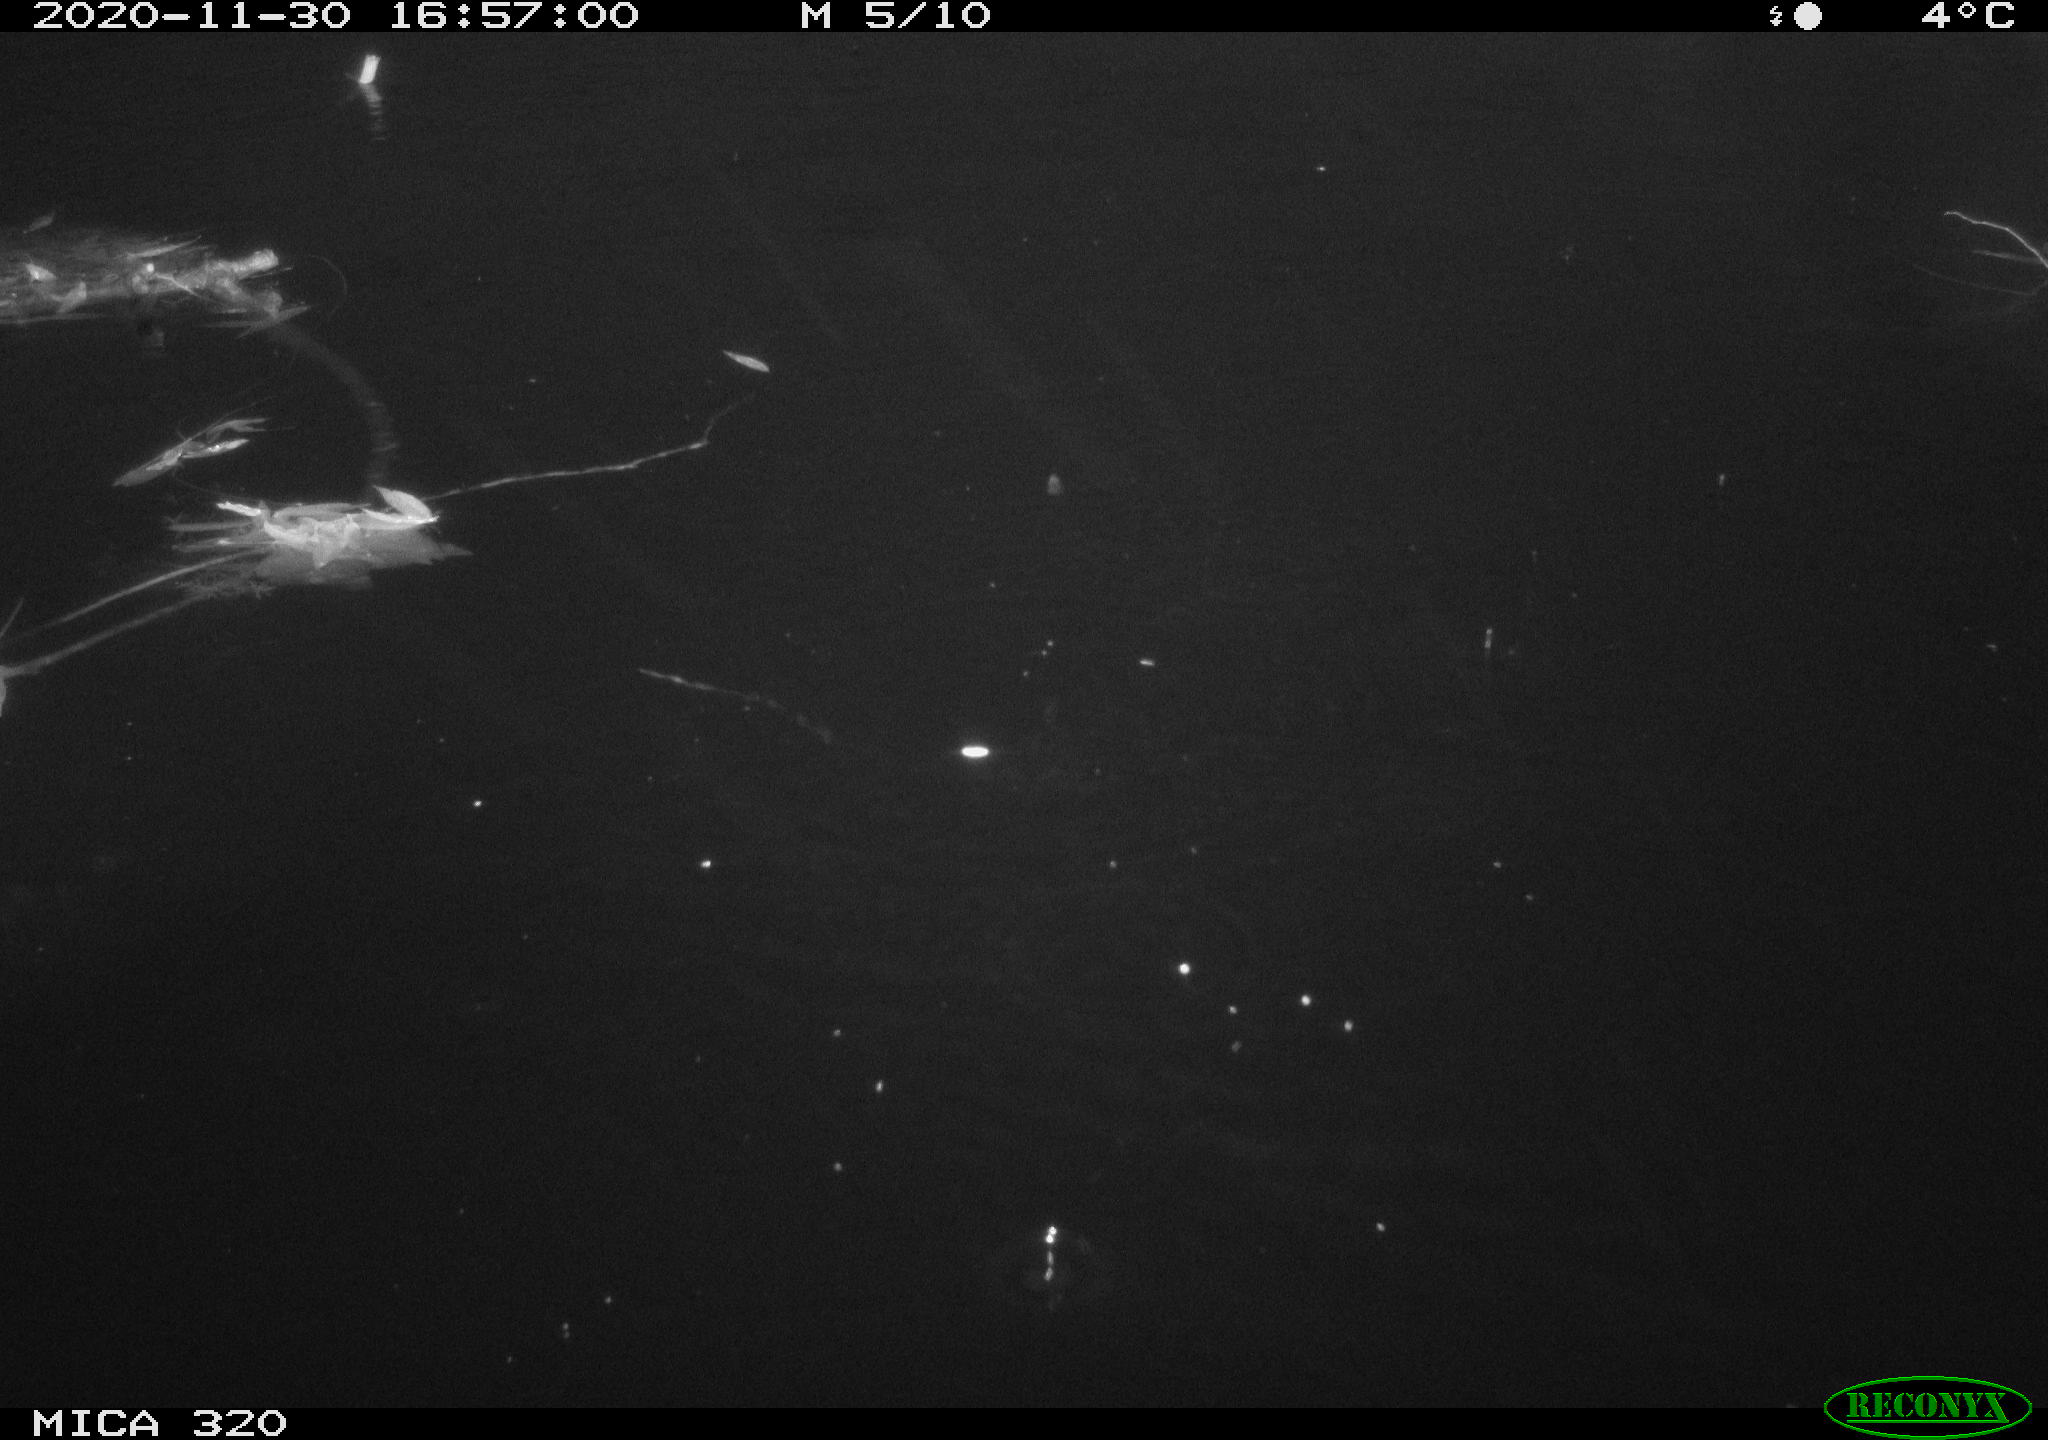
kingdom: Animalia
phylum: Chordata
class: Aves
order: Gruiformes
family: Rallidae
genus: Gallinula
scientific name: Gallinula chloropus
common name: Common moorhen
